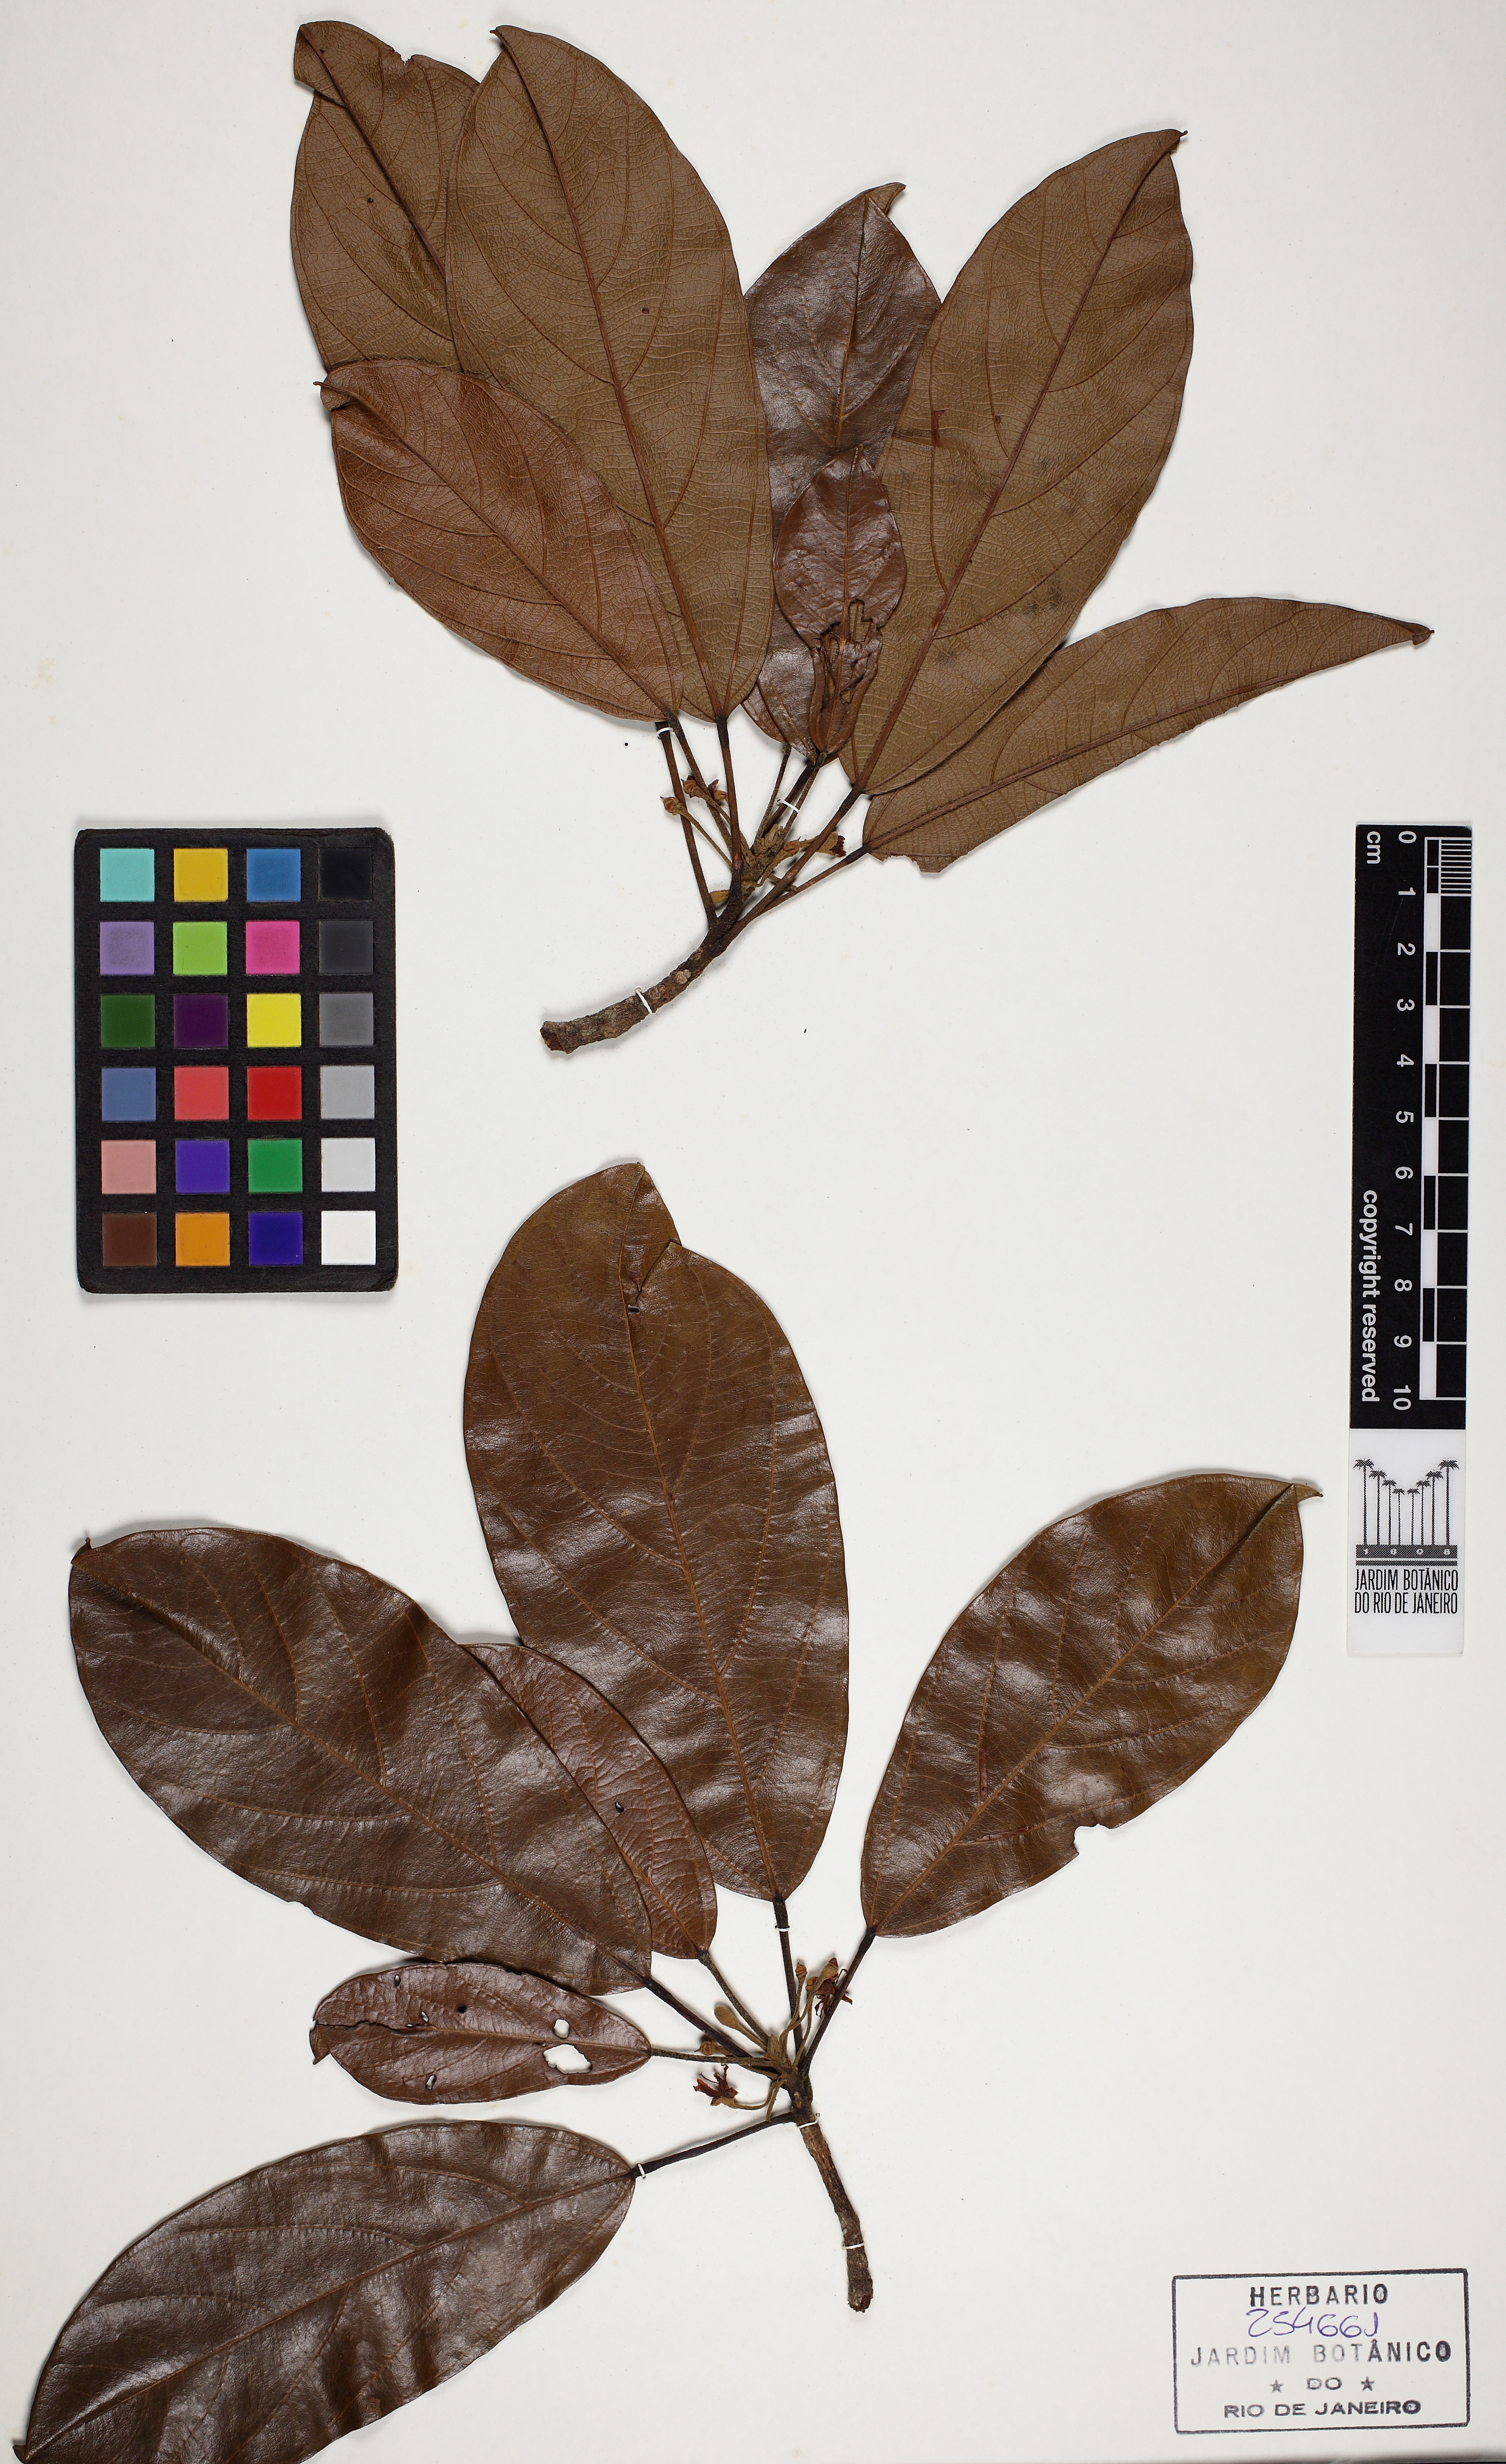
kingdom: Plantae
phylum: Tracheophyta
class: Magnoliopsida
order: Malvales
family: Malvaceae
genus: Scleronema
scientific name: Scleronema micranthum
